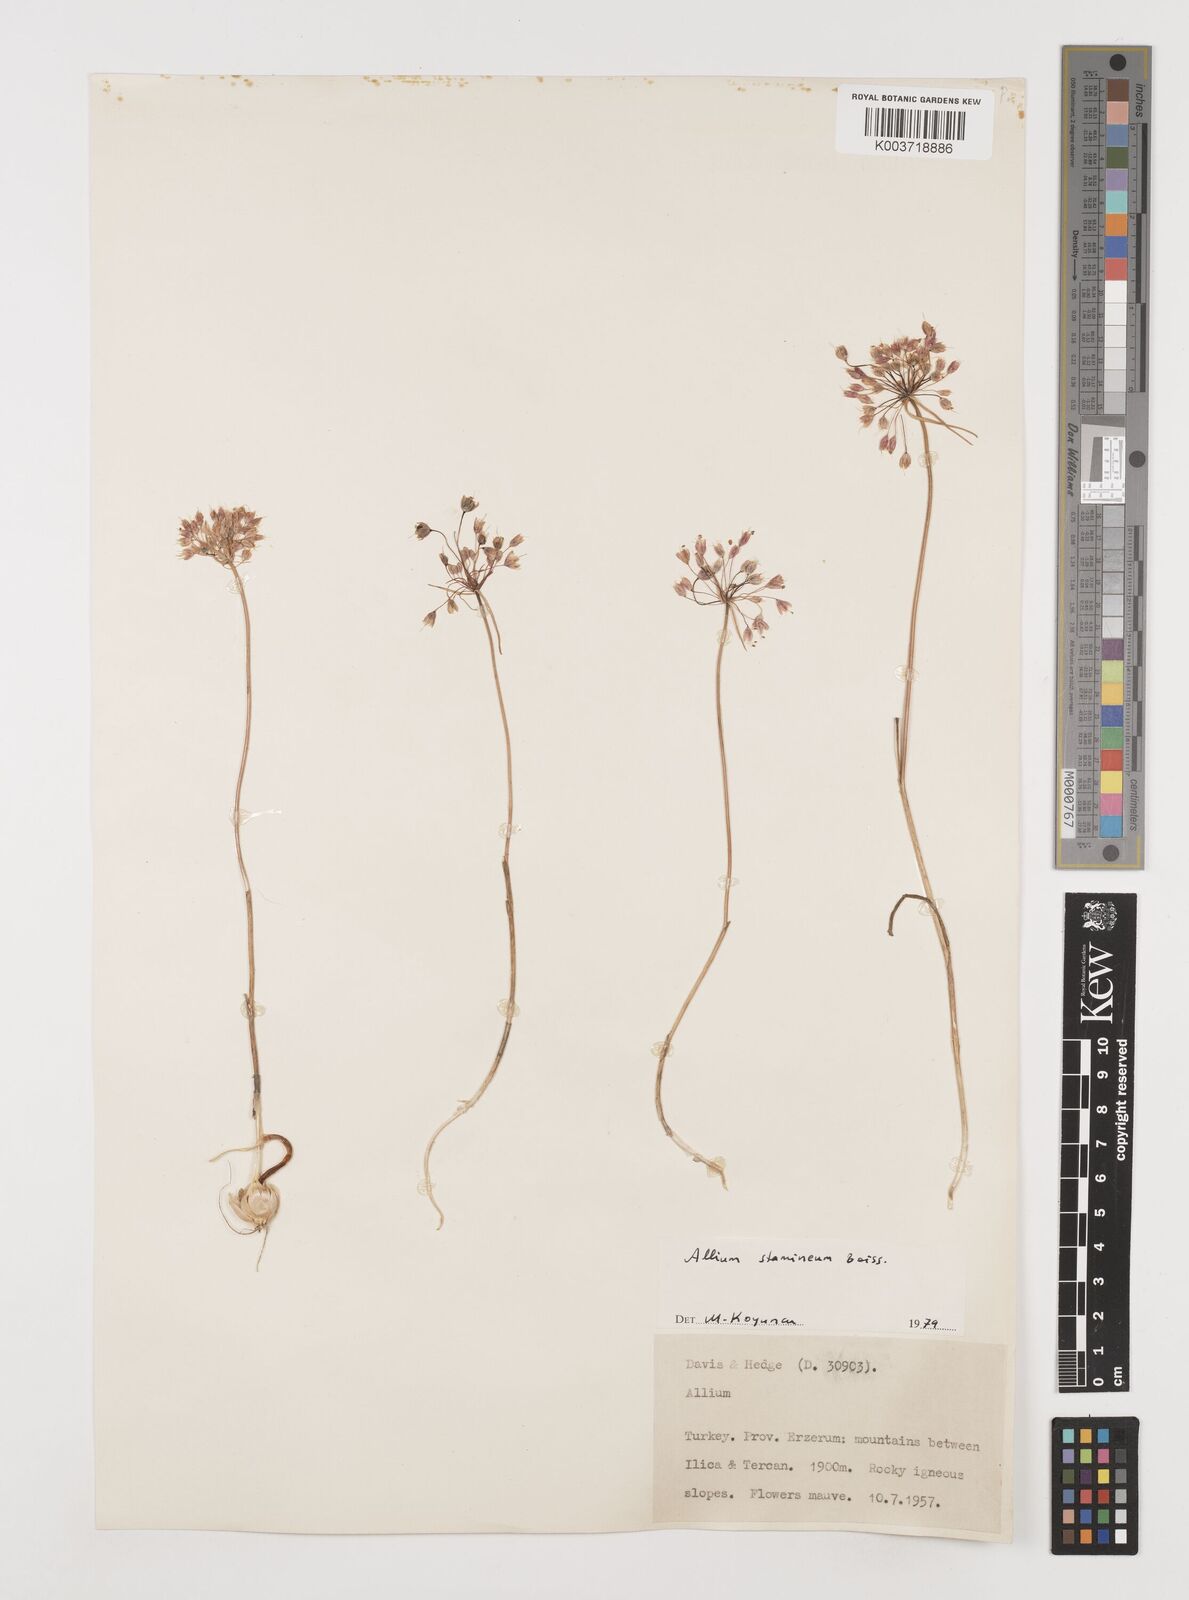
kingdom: Plantae
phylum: Tracheophyta
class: Liliopsida
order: Asparagales
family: Amaryllidaceae
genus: Allium
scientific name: Allium stamineum
